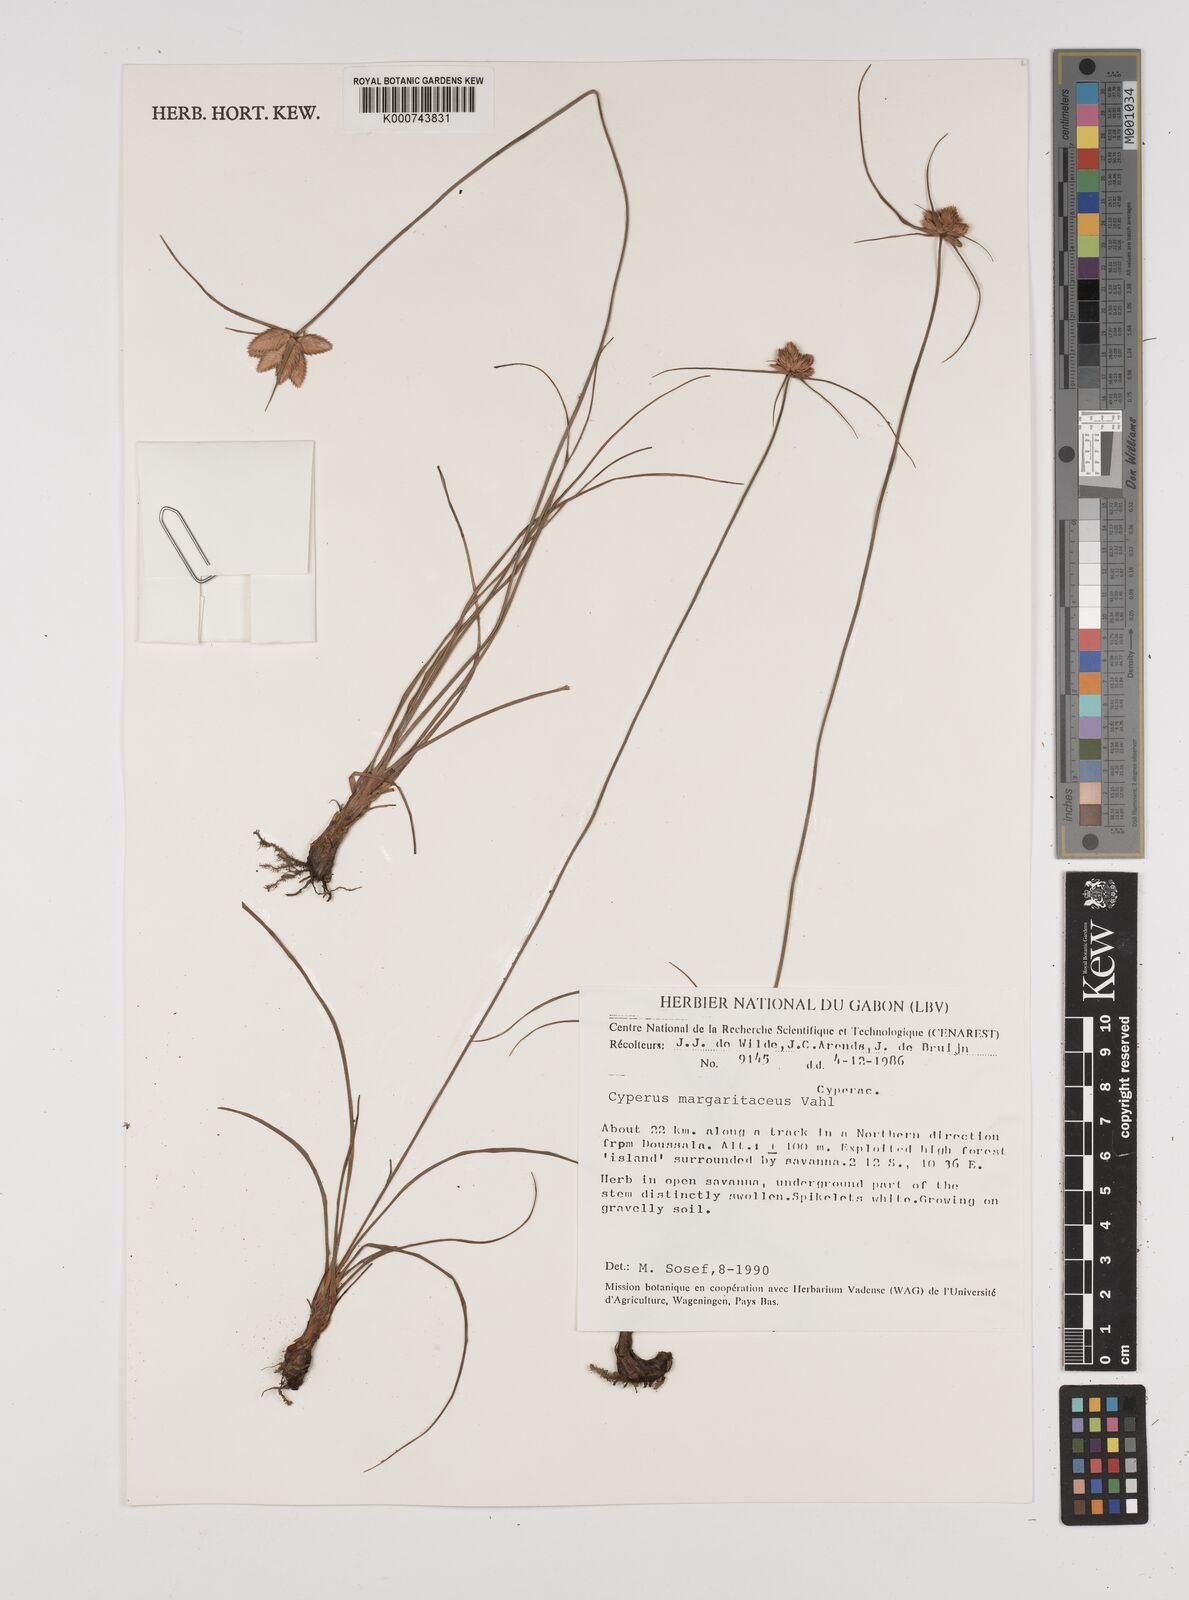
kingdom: Plantae
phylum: Tracheophyta
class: Liliopsida
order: Poales
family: Cyperaceae
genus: Cyperus
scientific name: Cyperus margaritaceus
